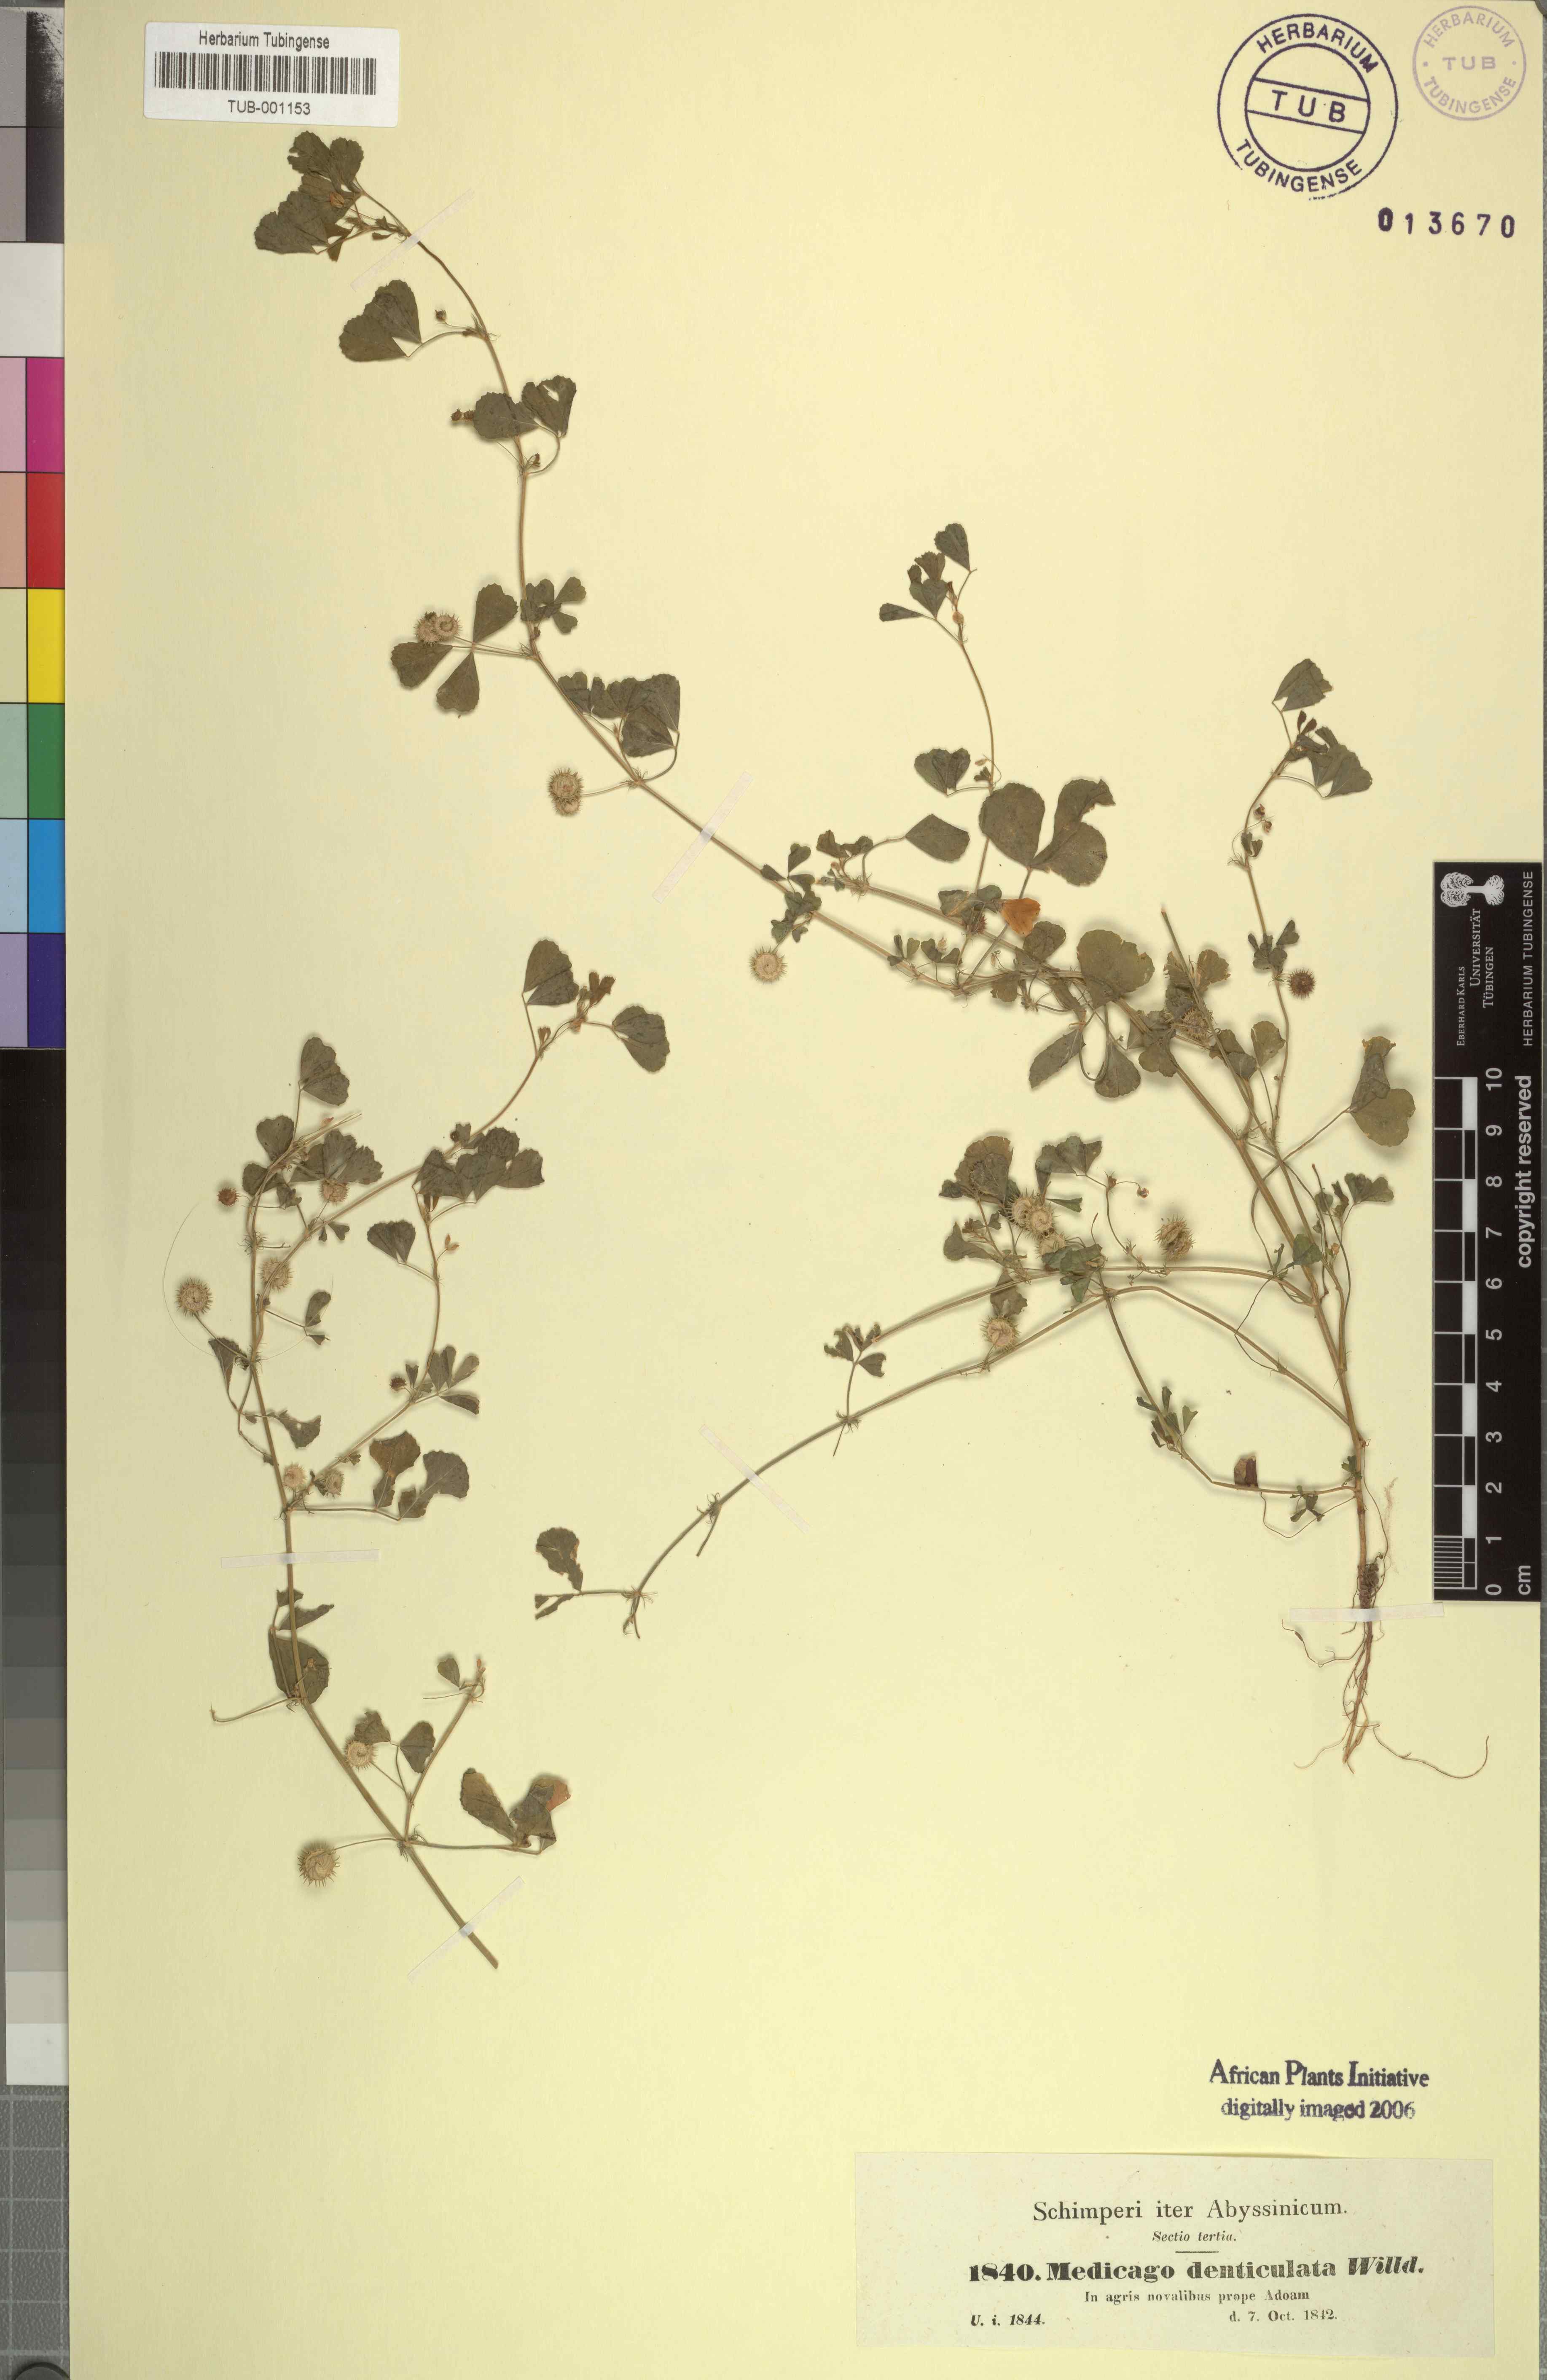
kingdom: Plantae
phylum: Tracheophyta
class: Magnoliopsida
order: Fabales
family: Fabaceae
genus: Medicago
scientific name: Medicago polymorpha
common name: Burclover
